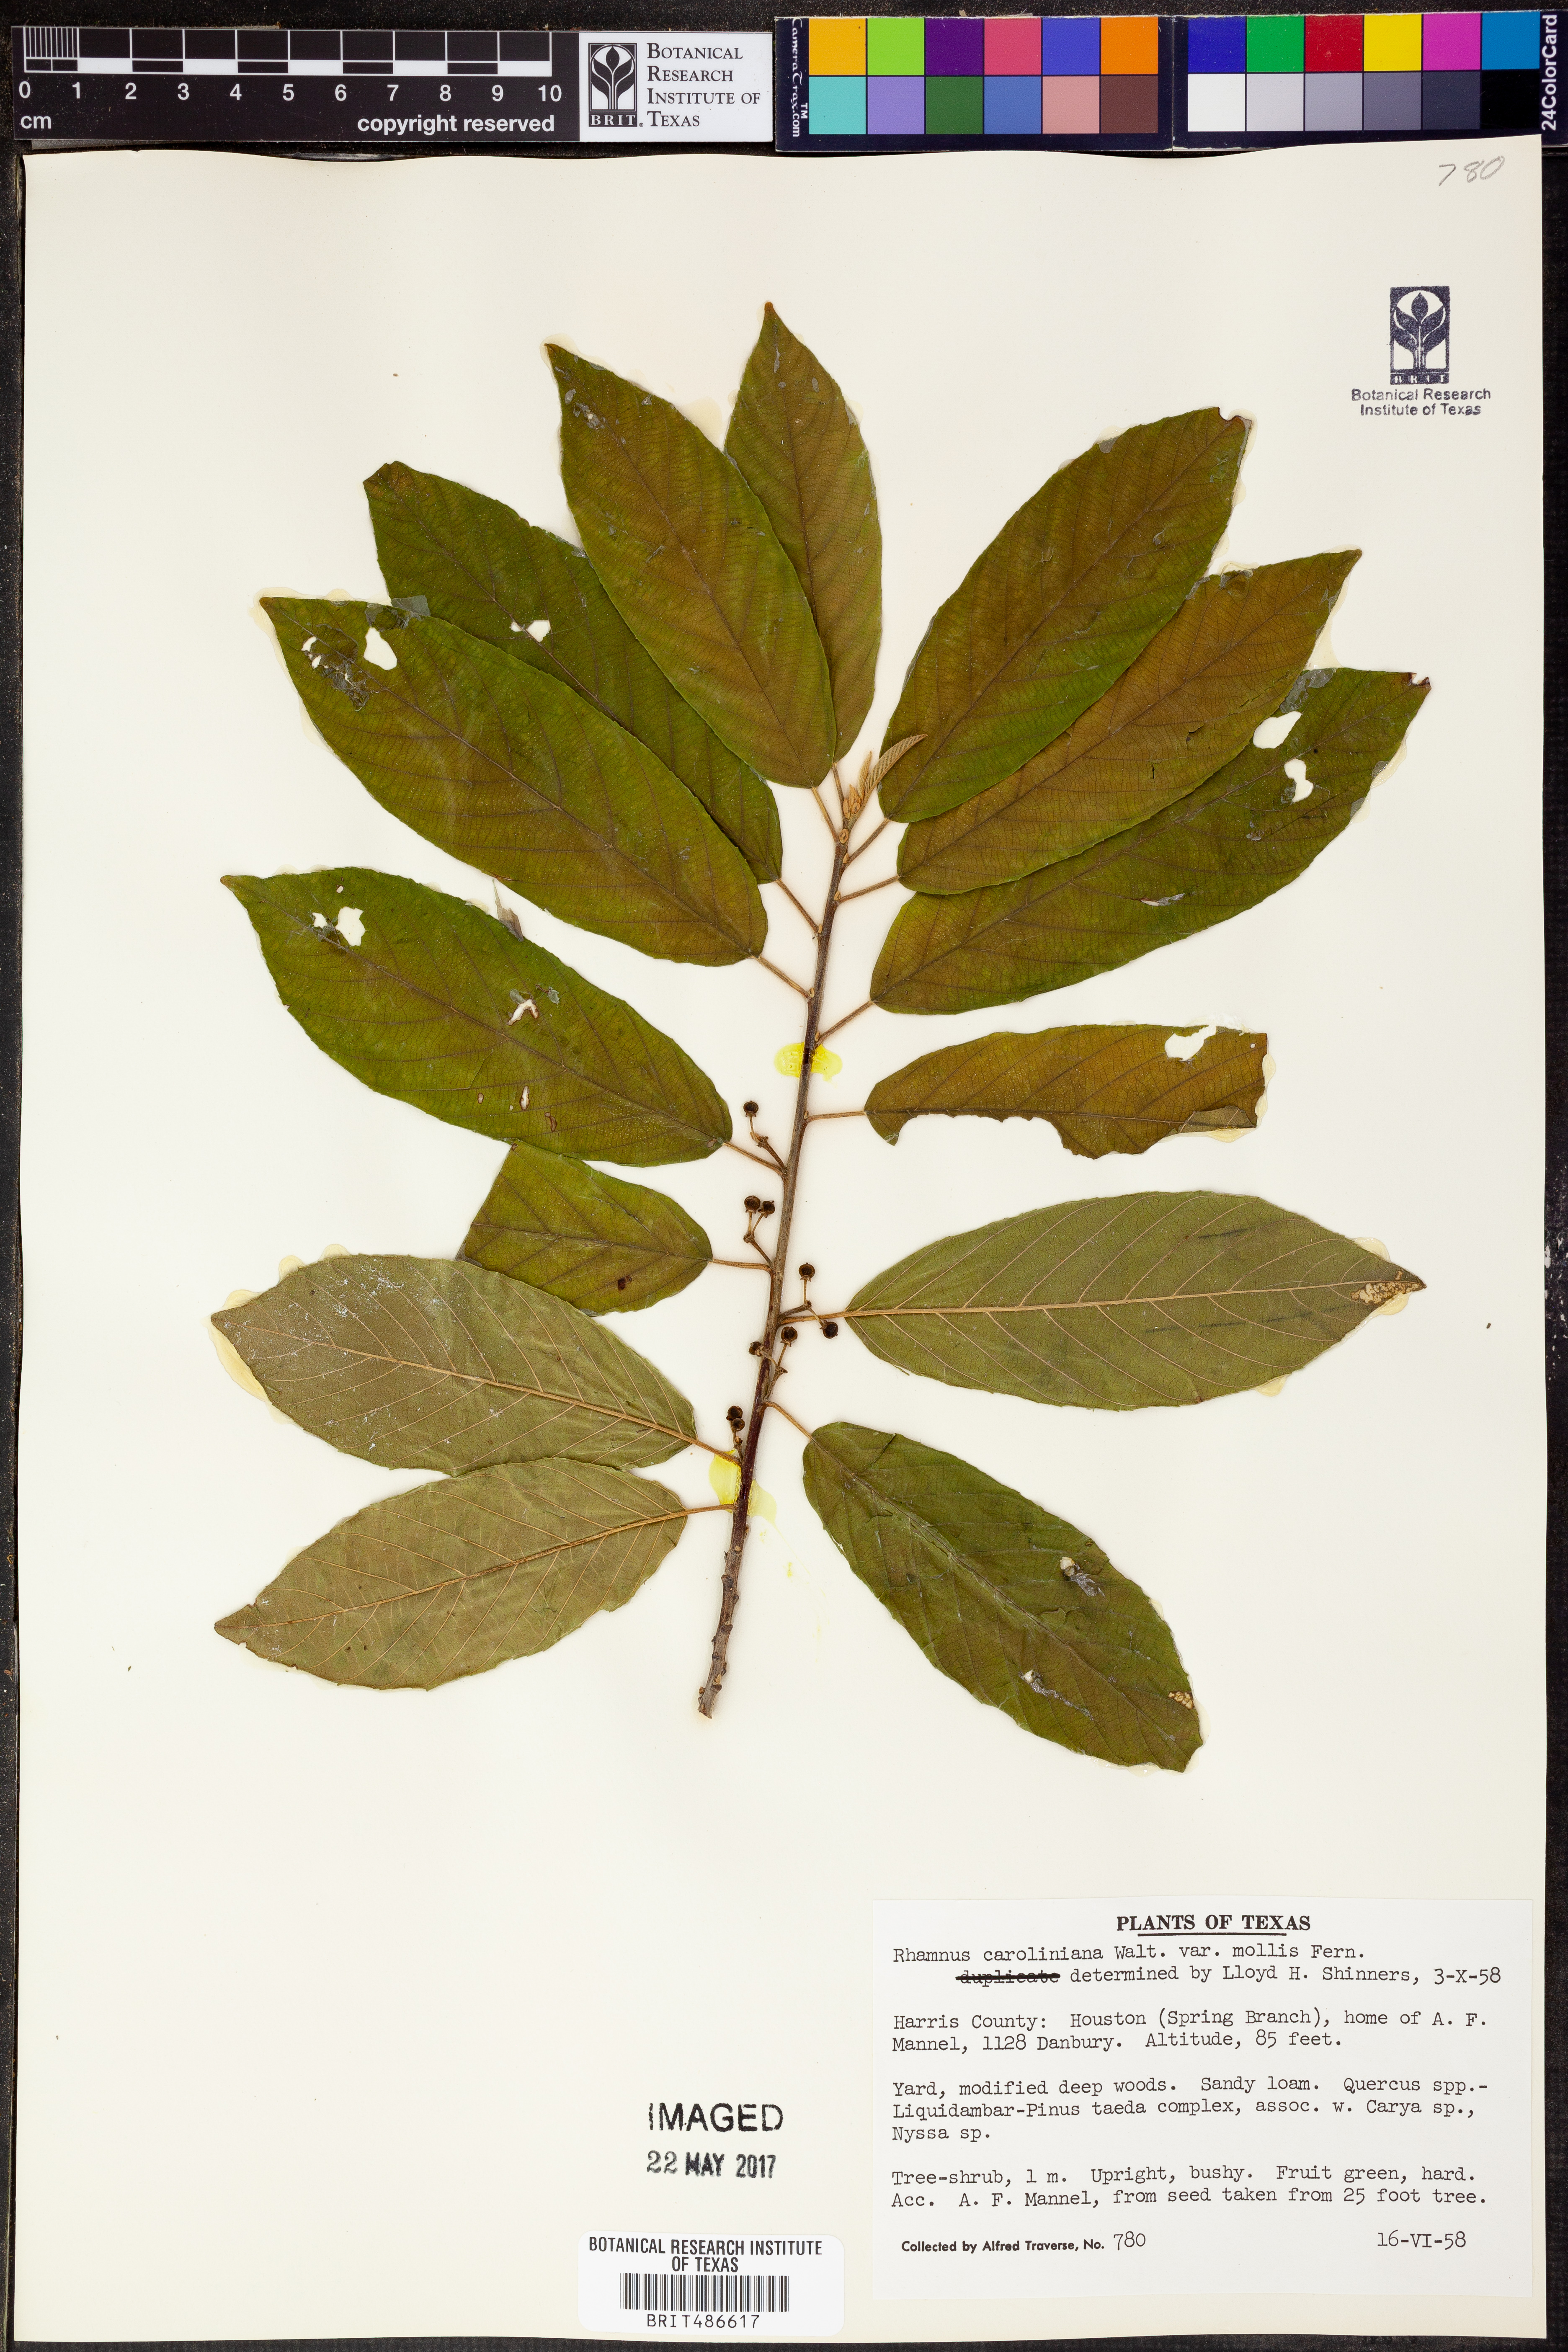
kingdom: Plantae
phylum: Tracheophyta
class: Magnoliopsida
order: Rosales
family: Rhamnaceae
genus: Frangula
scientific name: Frangula caroliniana
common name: Carolina buckthorn
